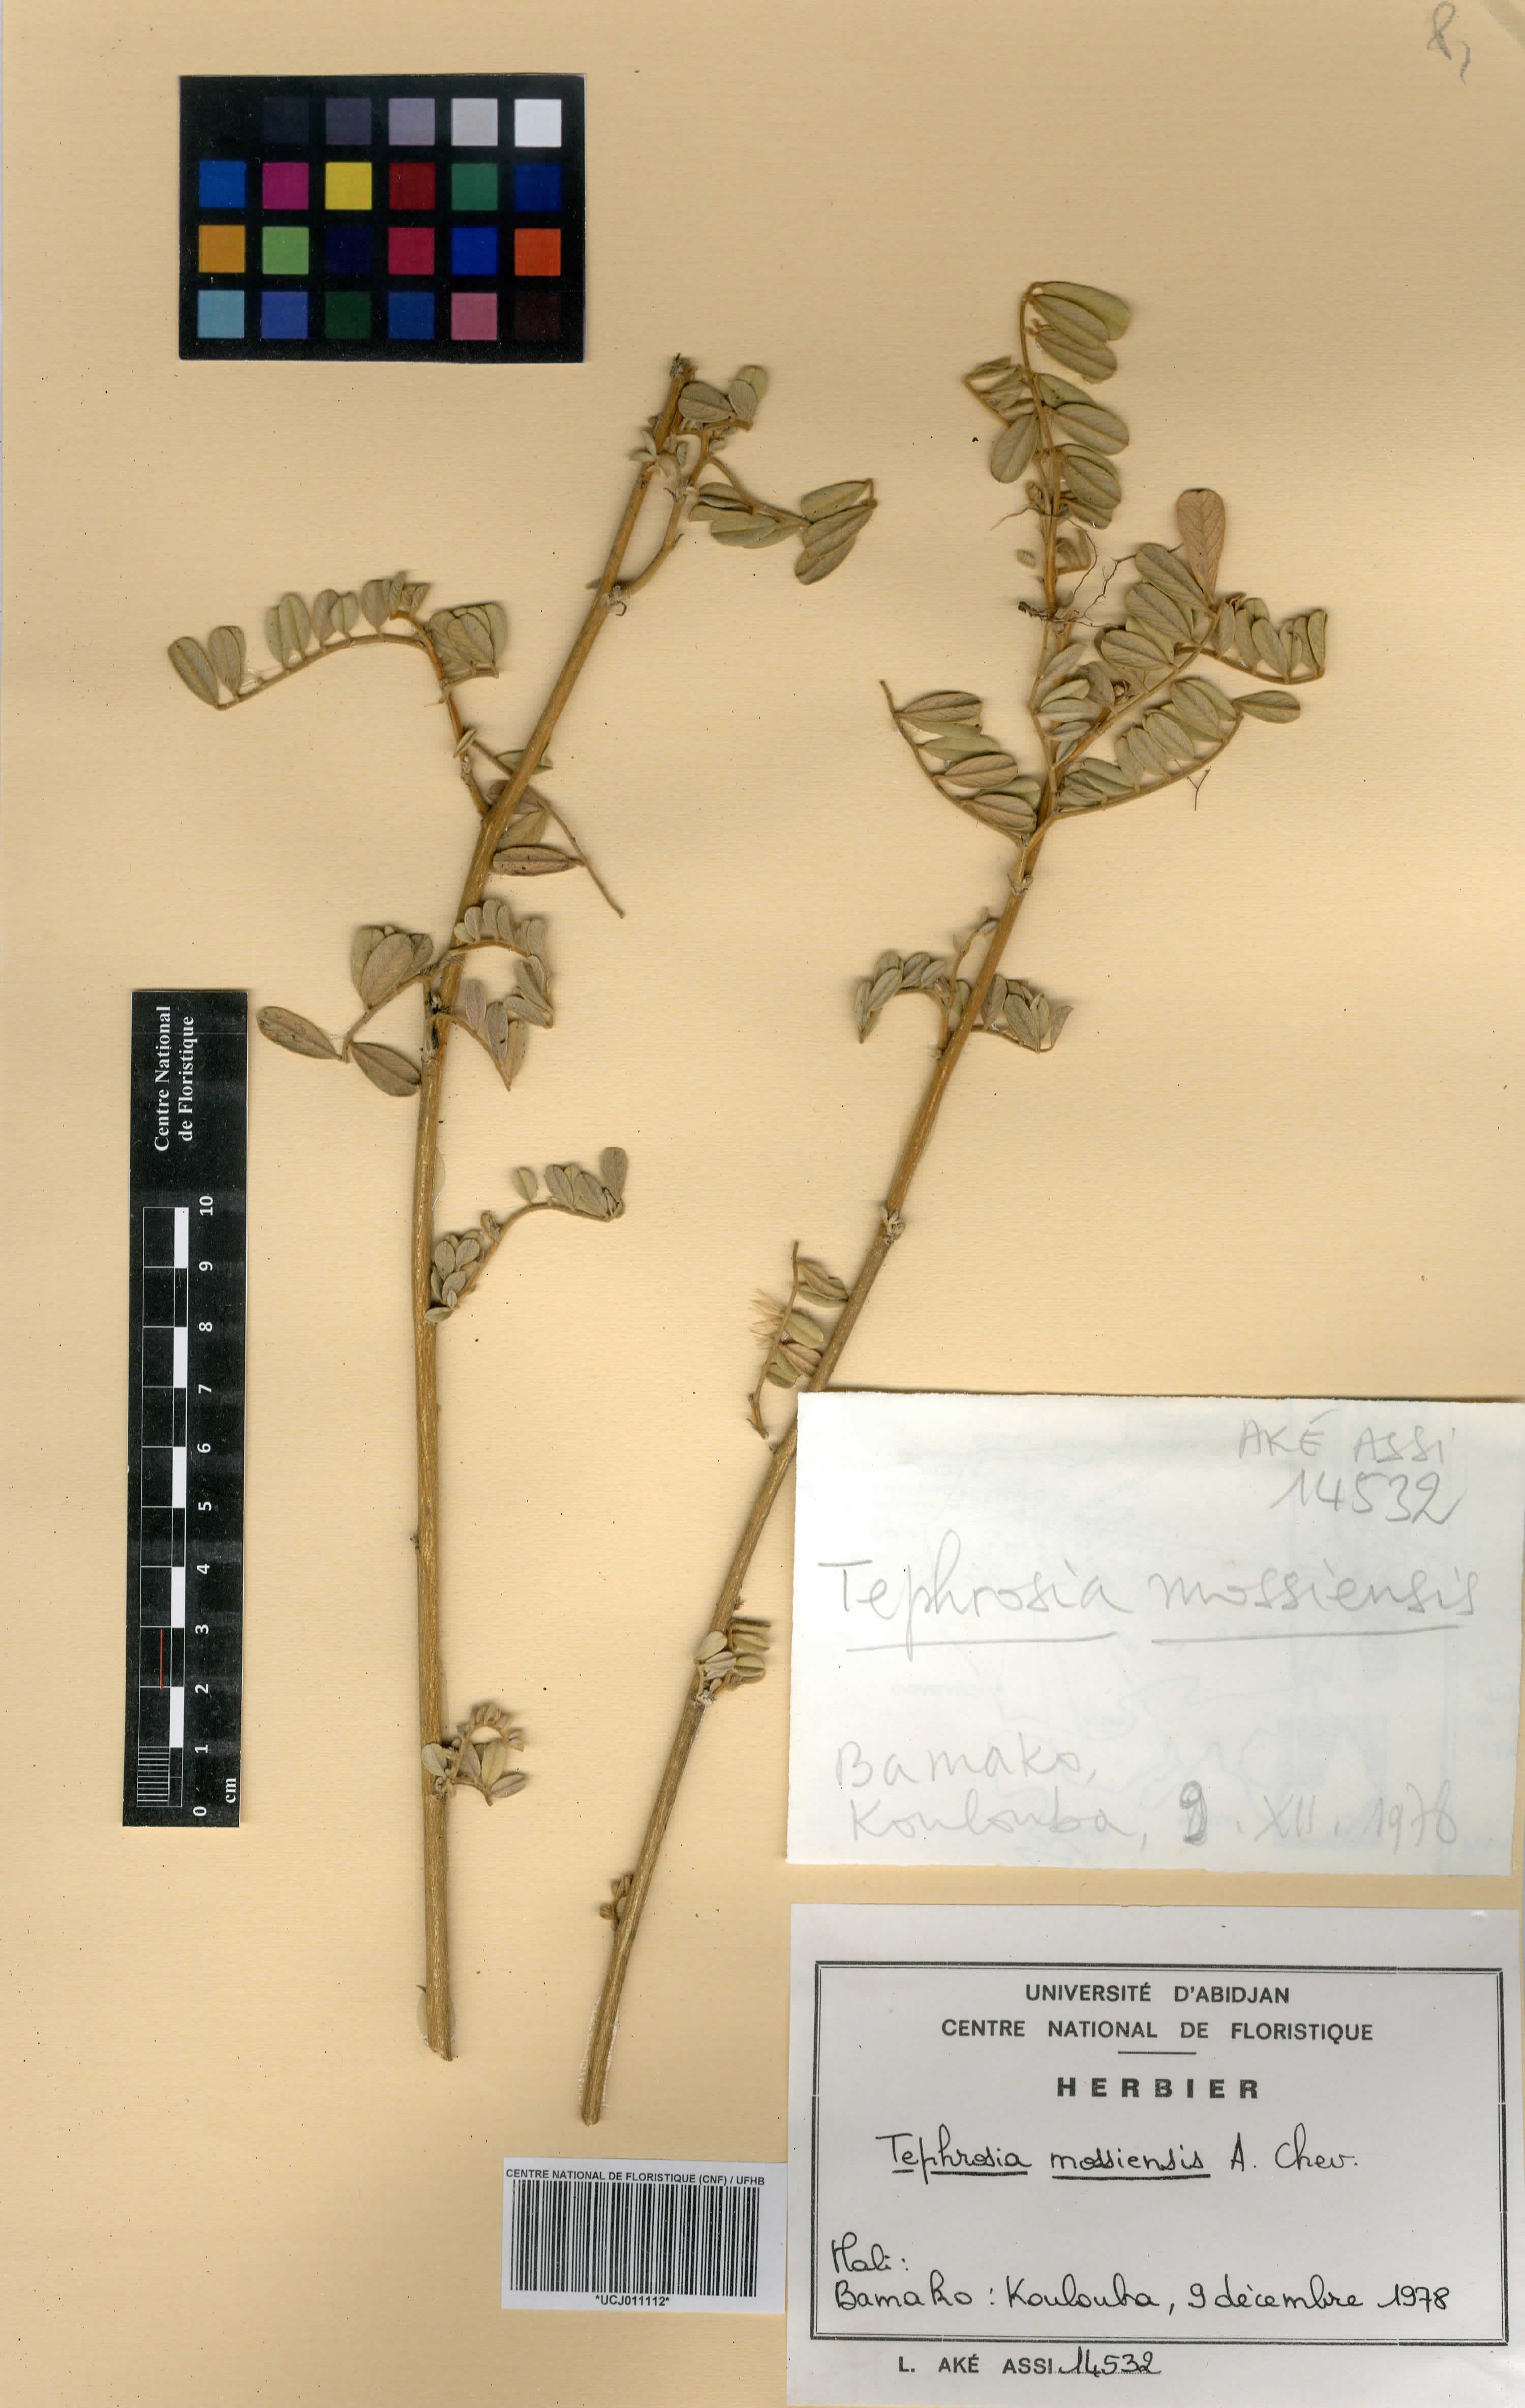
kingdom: Plantae
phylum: Tracheophyta
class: Magnoliopsida
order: Fabales
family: Fabaceae
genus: Tephrosia
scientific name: Tephrosia mossiensis
